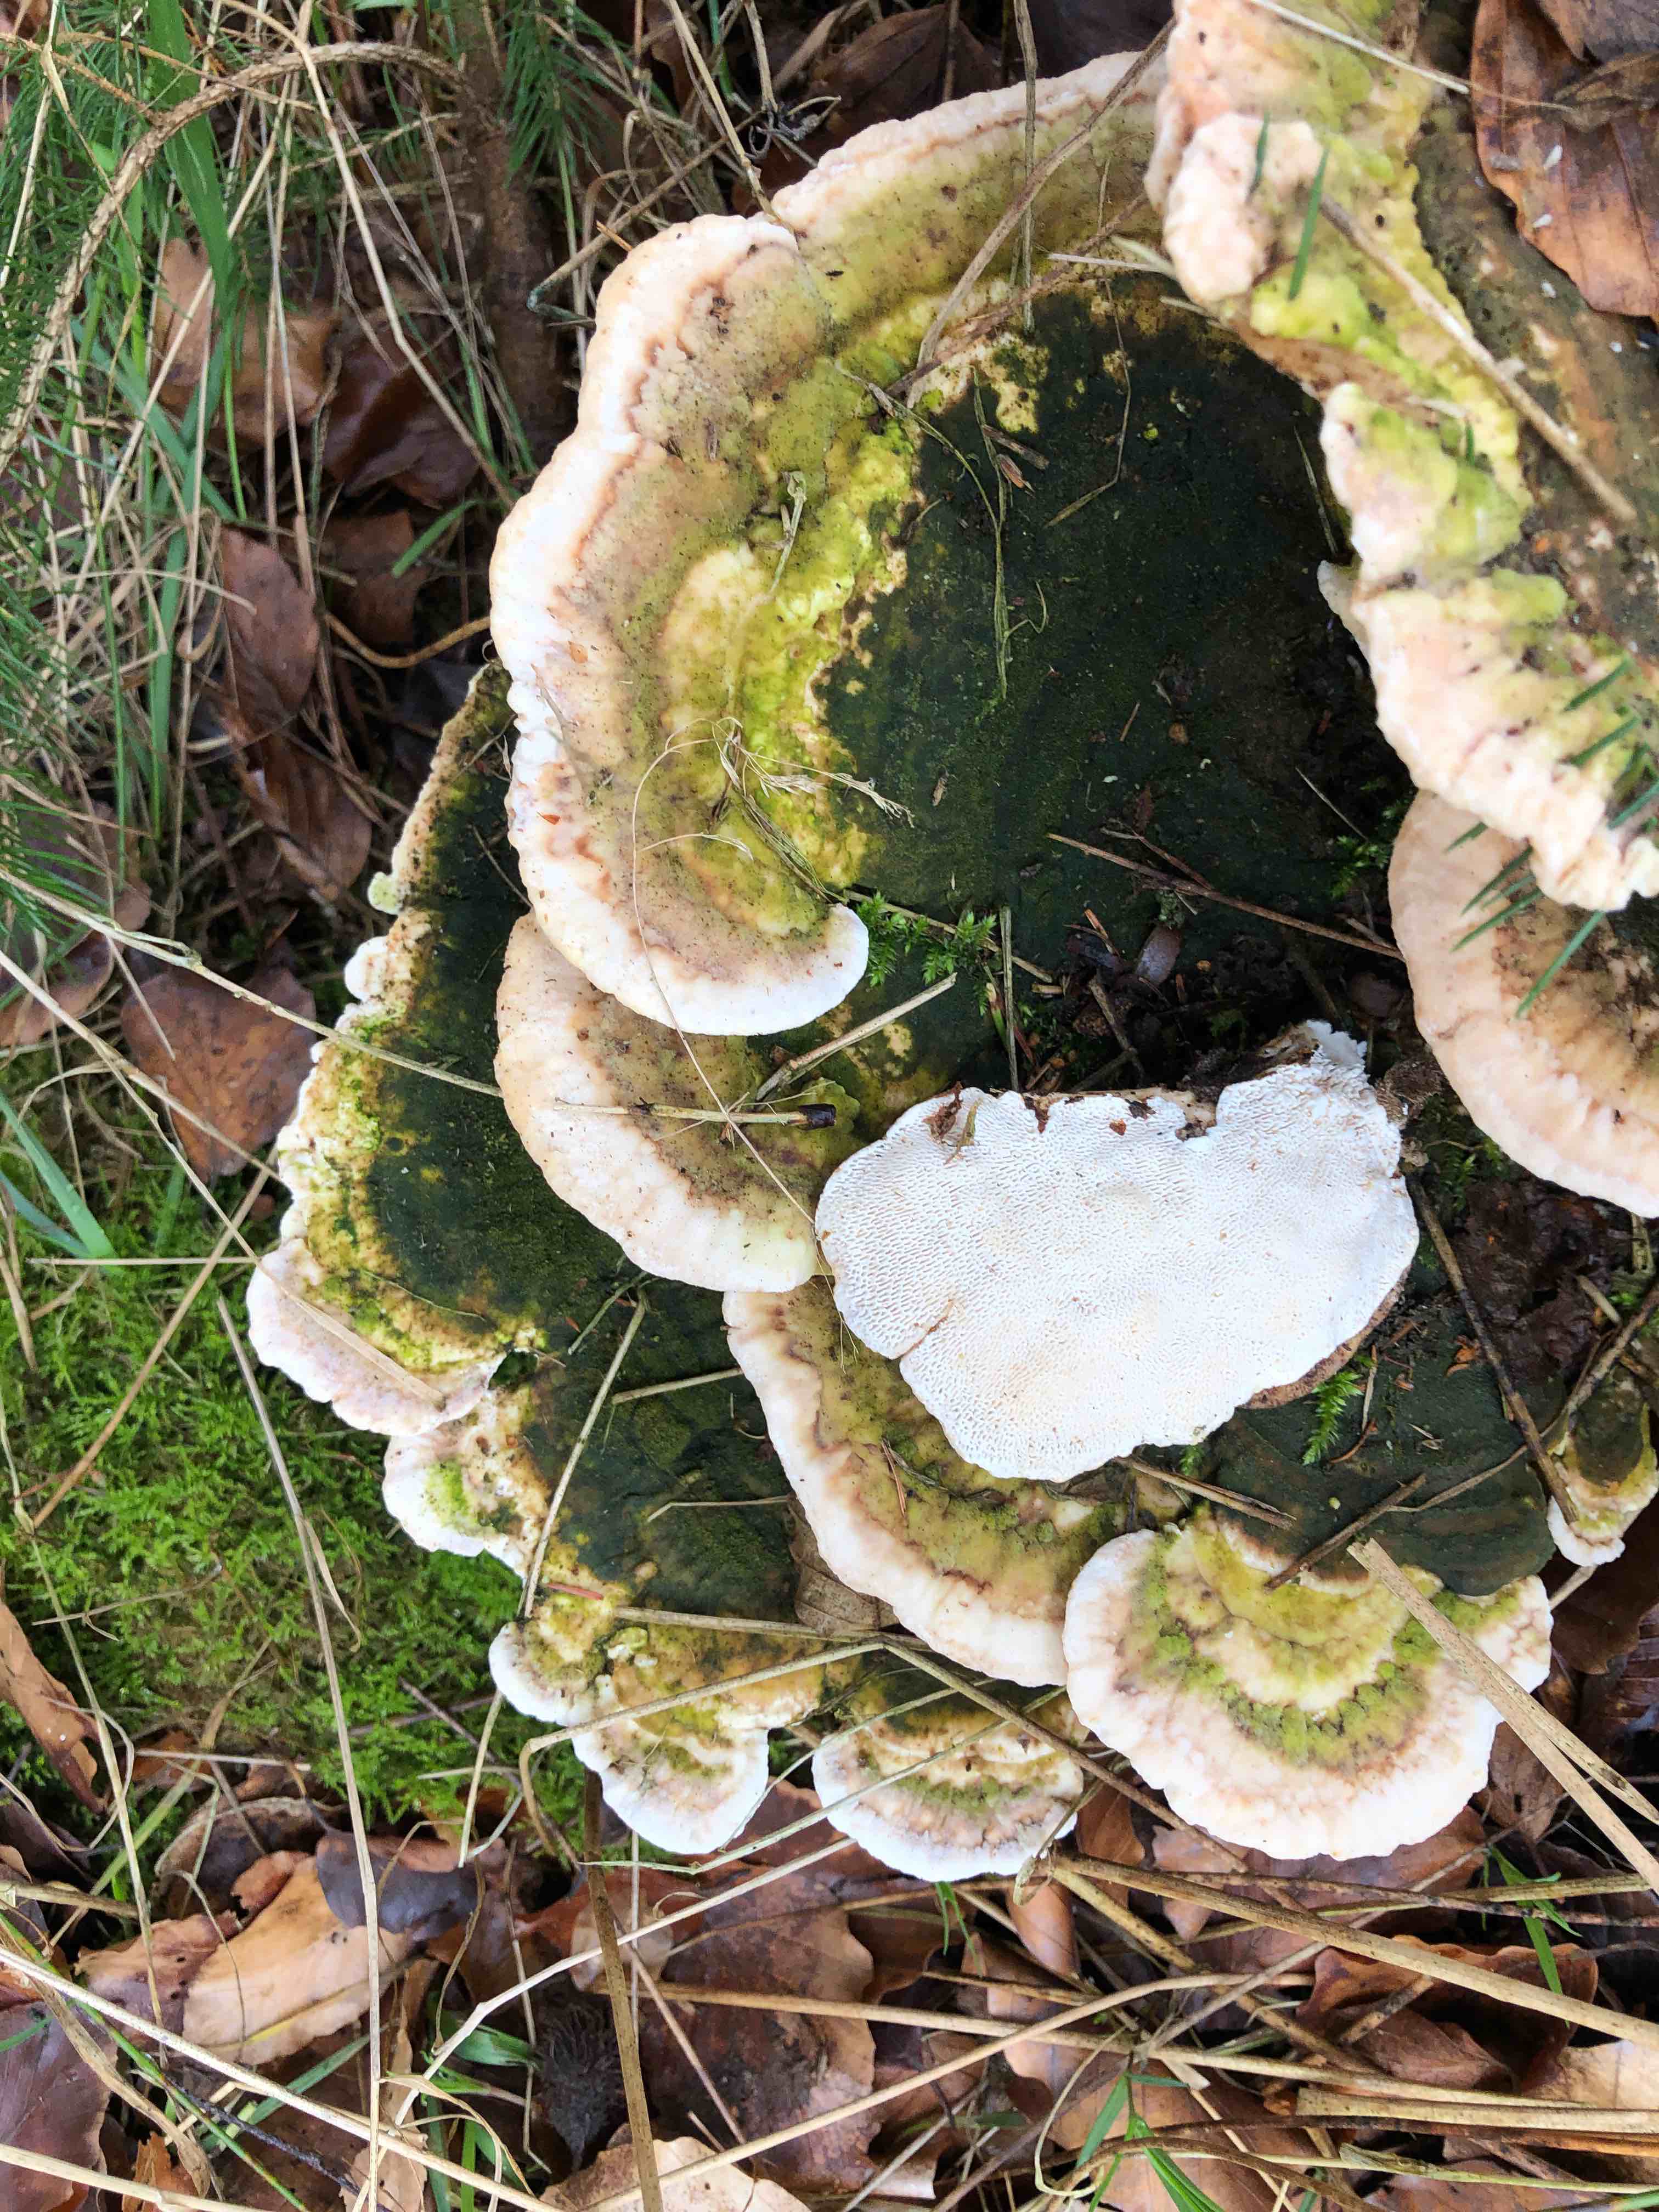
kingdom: Fungi
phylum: Basidiomycota
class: Agaricomycetes
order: Polyporales
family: Polyporaceae
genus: Trametes
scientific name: Trametes gibbosa
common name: puklet læderporesvamp
